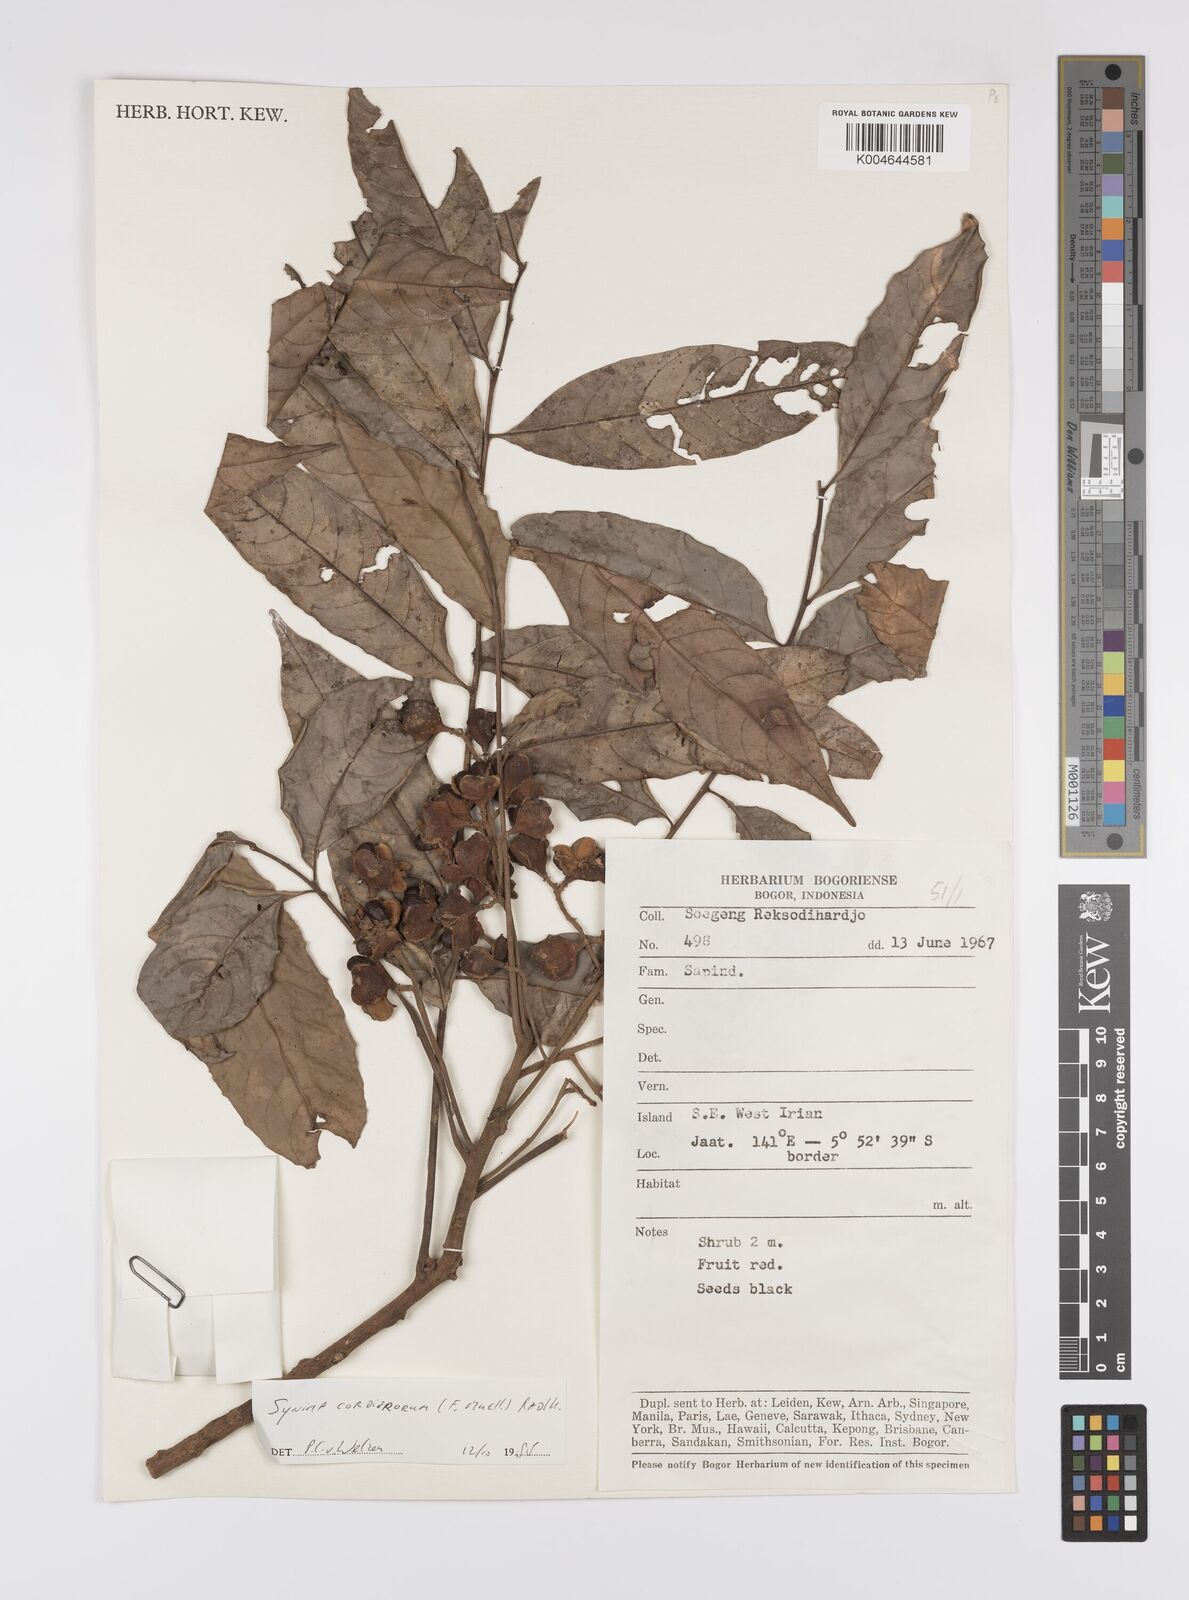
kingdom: Plantae
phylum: Tracheophyta
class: Magnoliopsida
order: Sapindales
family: Sapindaceae
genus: Synima
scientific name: Synima cordierorum
